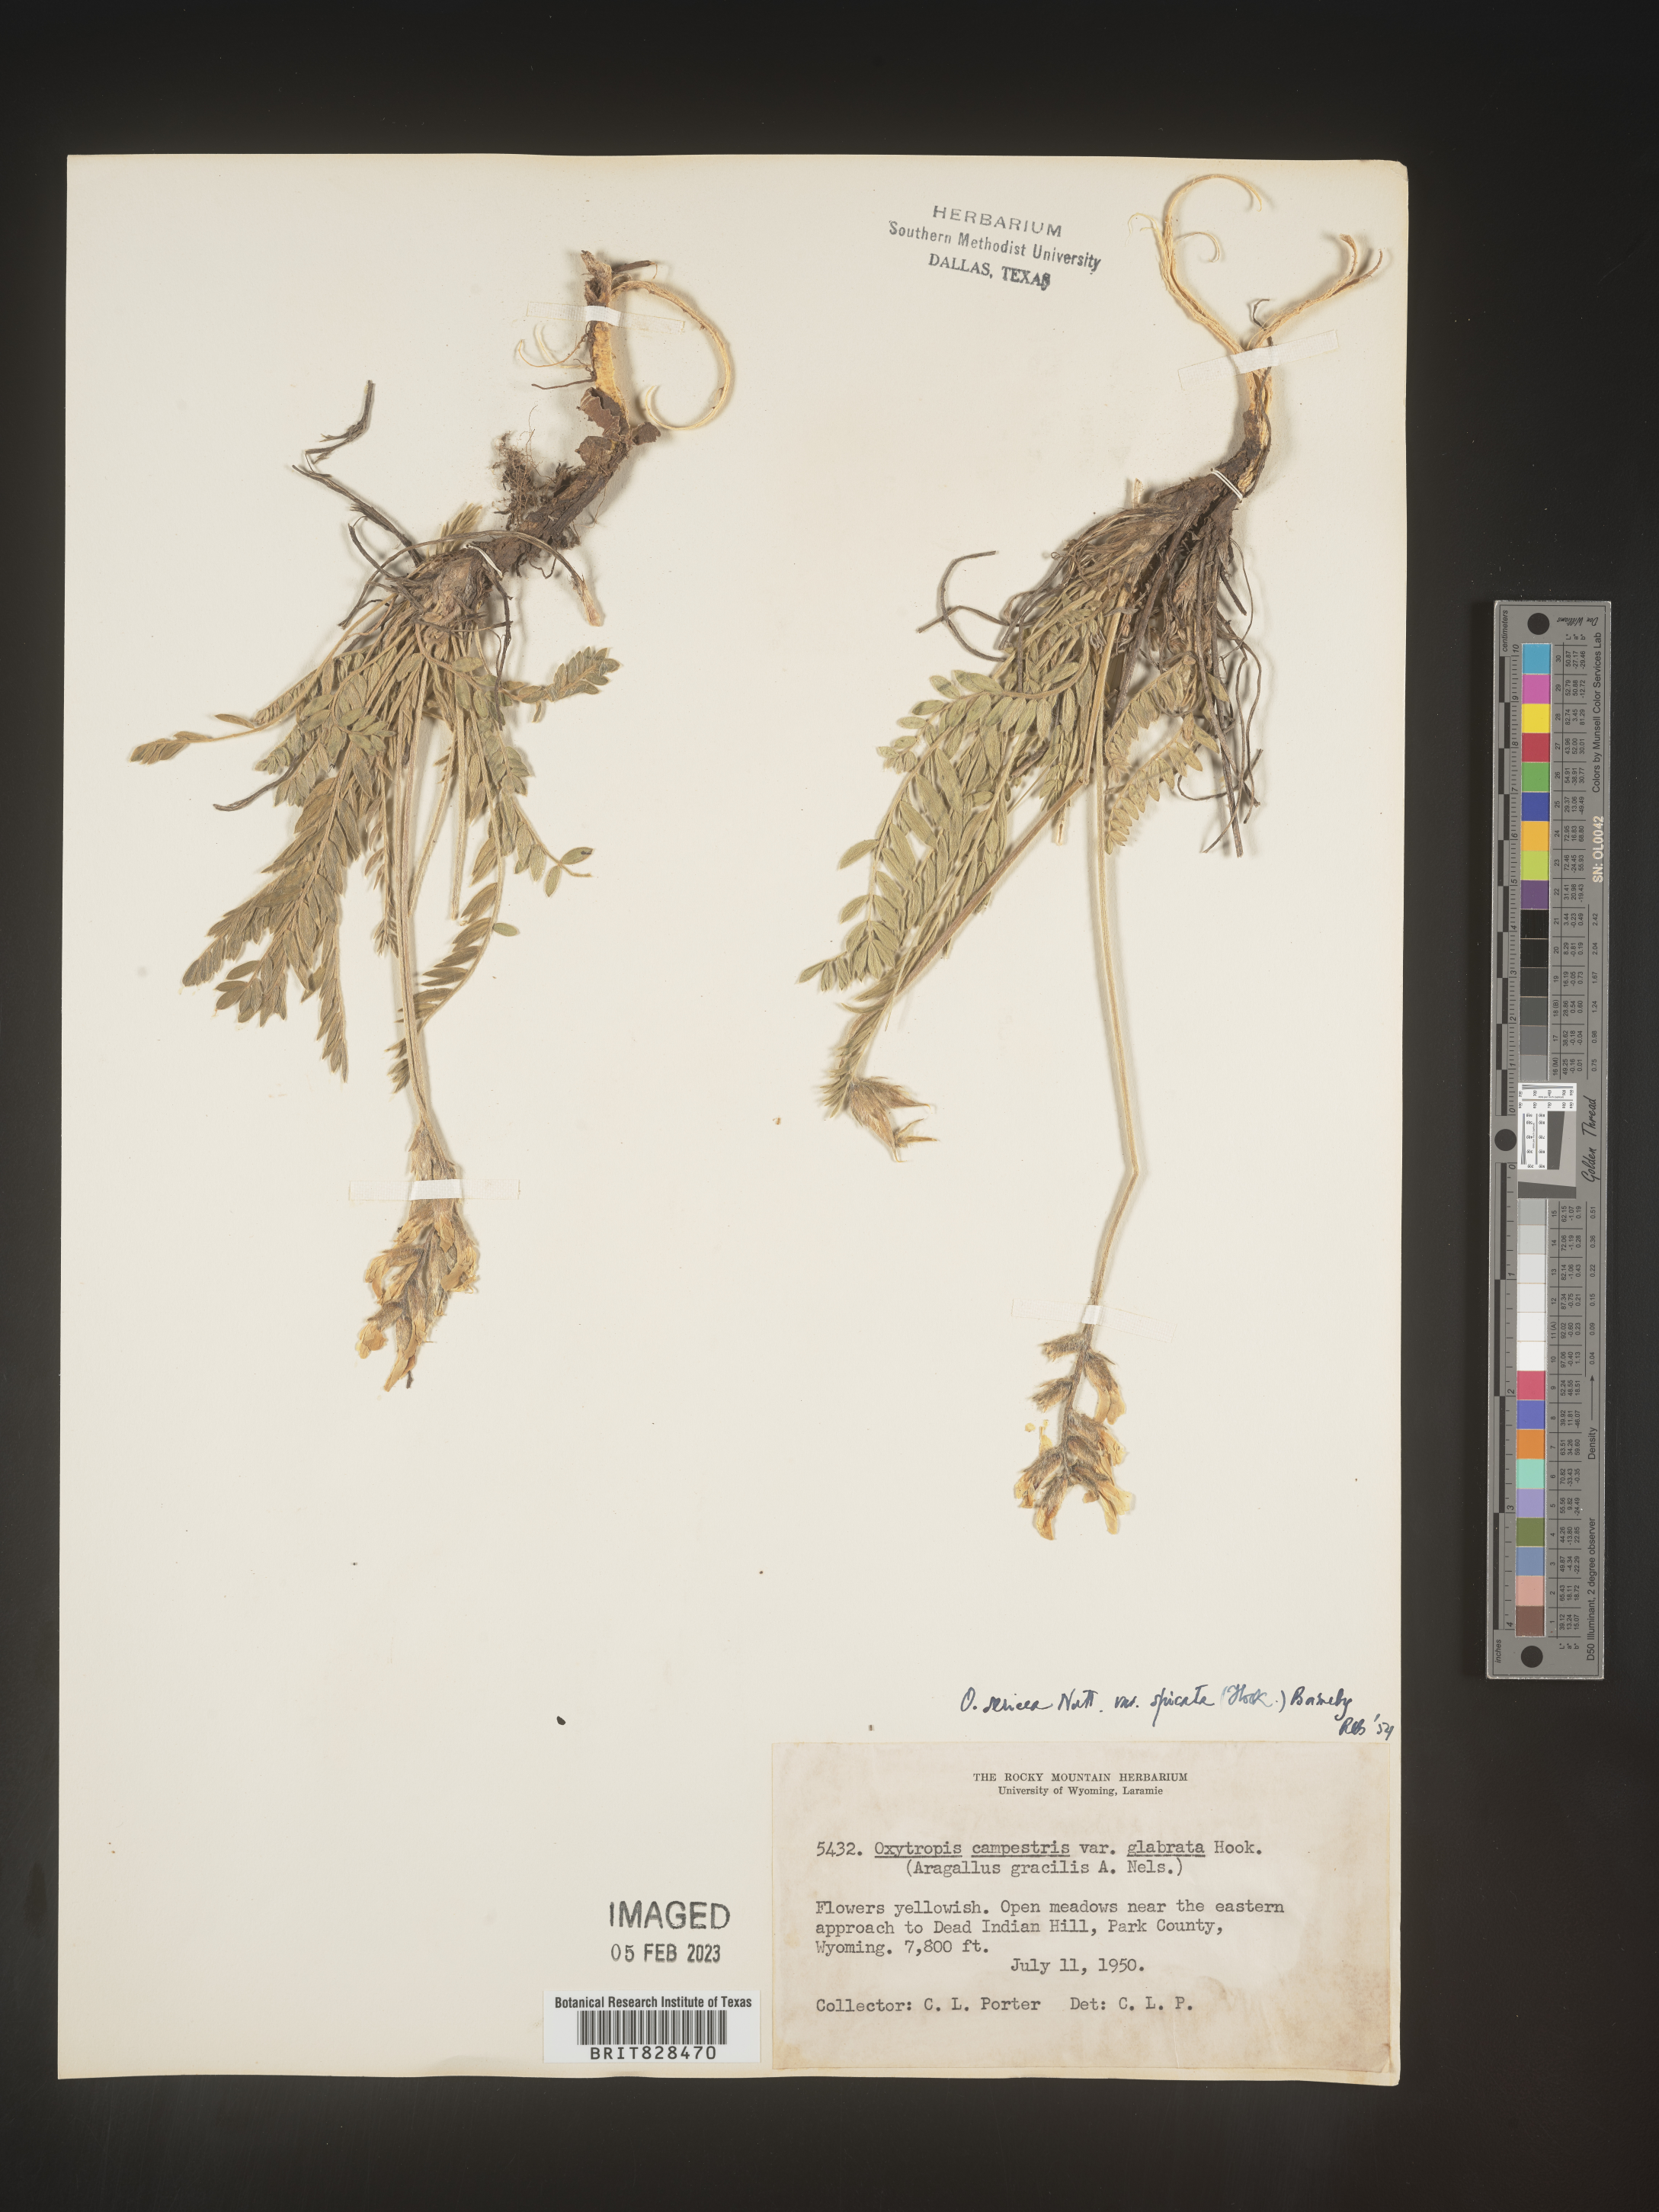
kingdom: Plantae
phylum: Tracheophyta
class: Magnoliopsida
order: Fabales
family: Fabaceae
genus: Oxytropis
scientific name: Oxytropis sericea
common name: Silky locoweed
